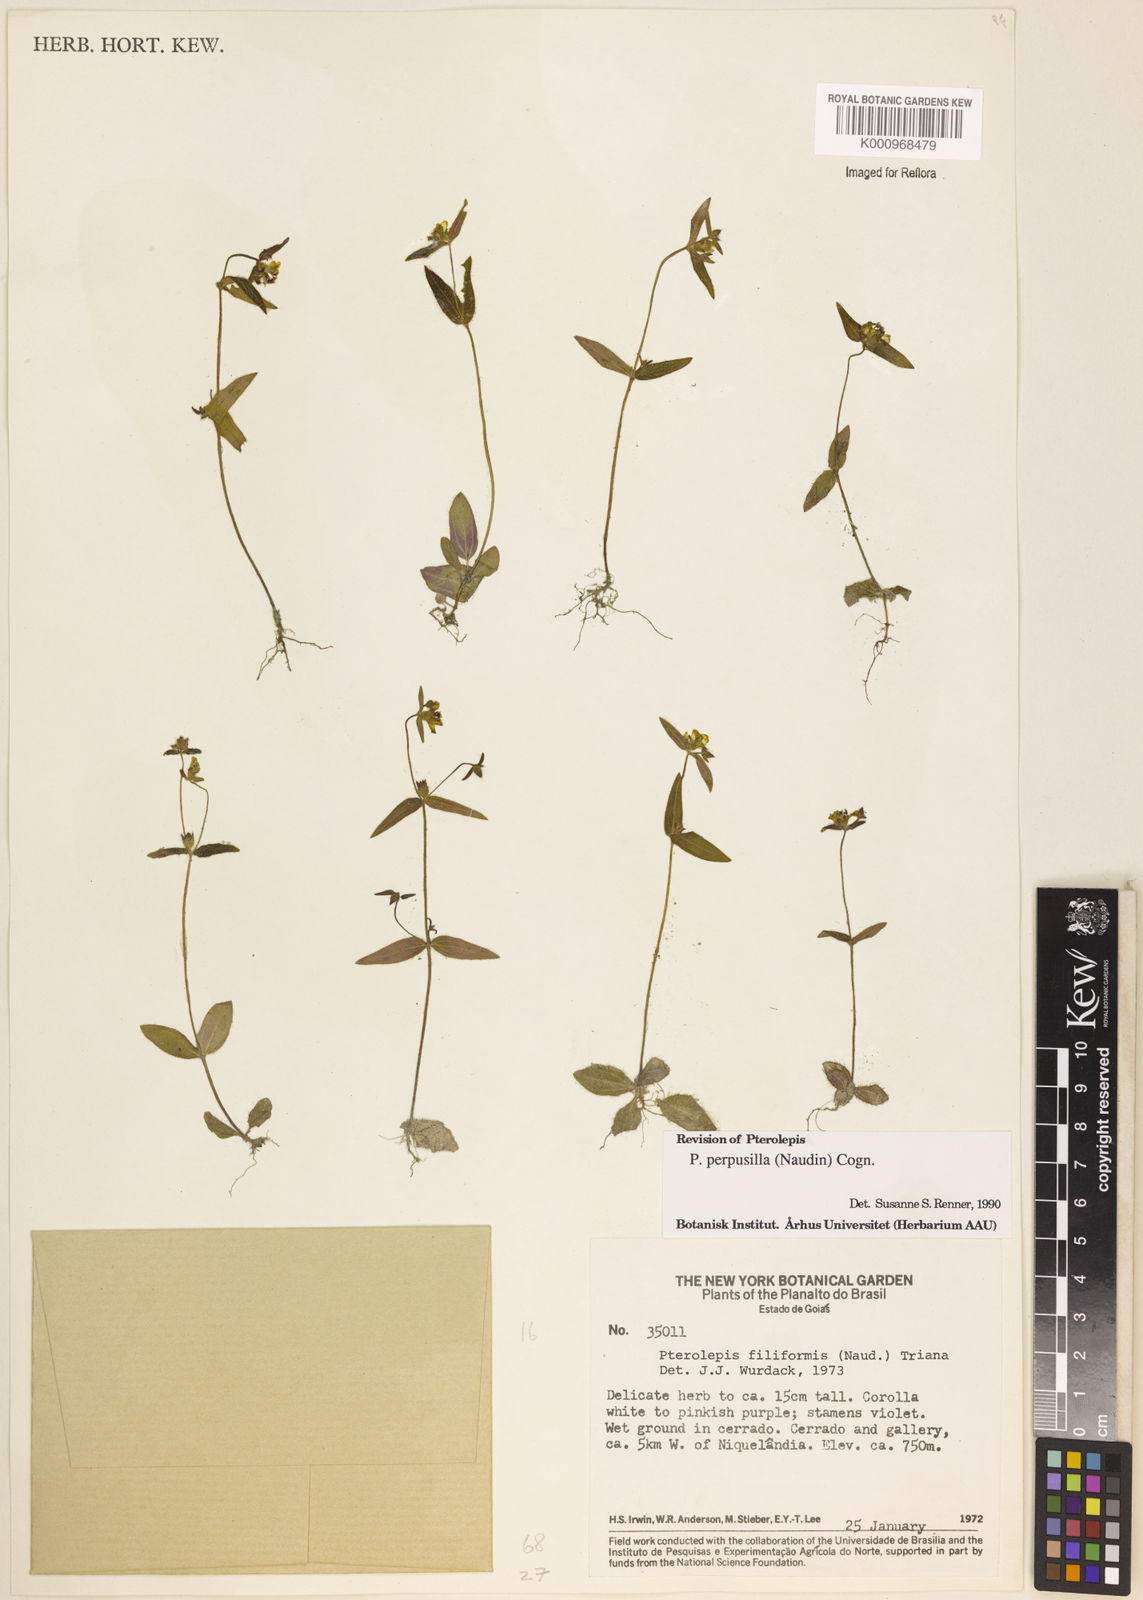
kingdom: Plantae
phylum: Tracheophyta
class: Magnoliopsida
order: Myrtales
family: Melastomataceae
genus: Pterolepis
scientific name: Pterolepis perpusilla
